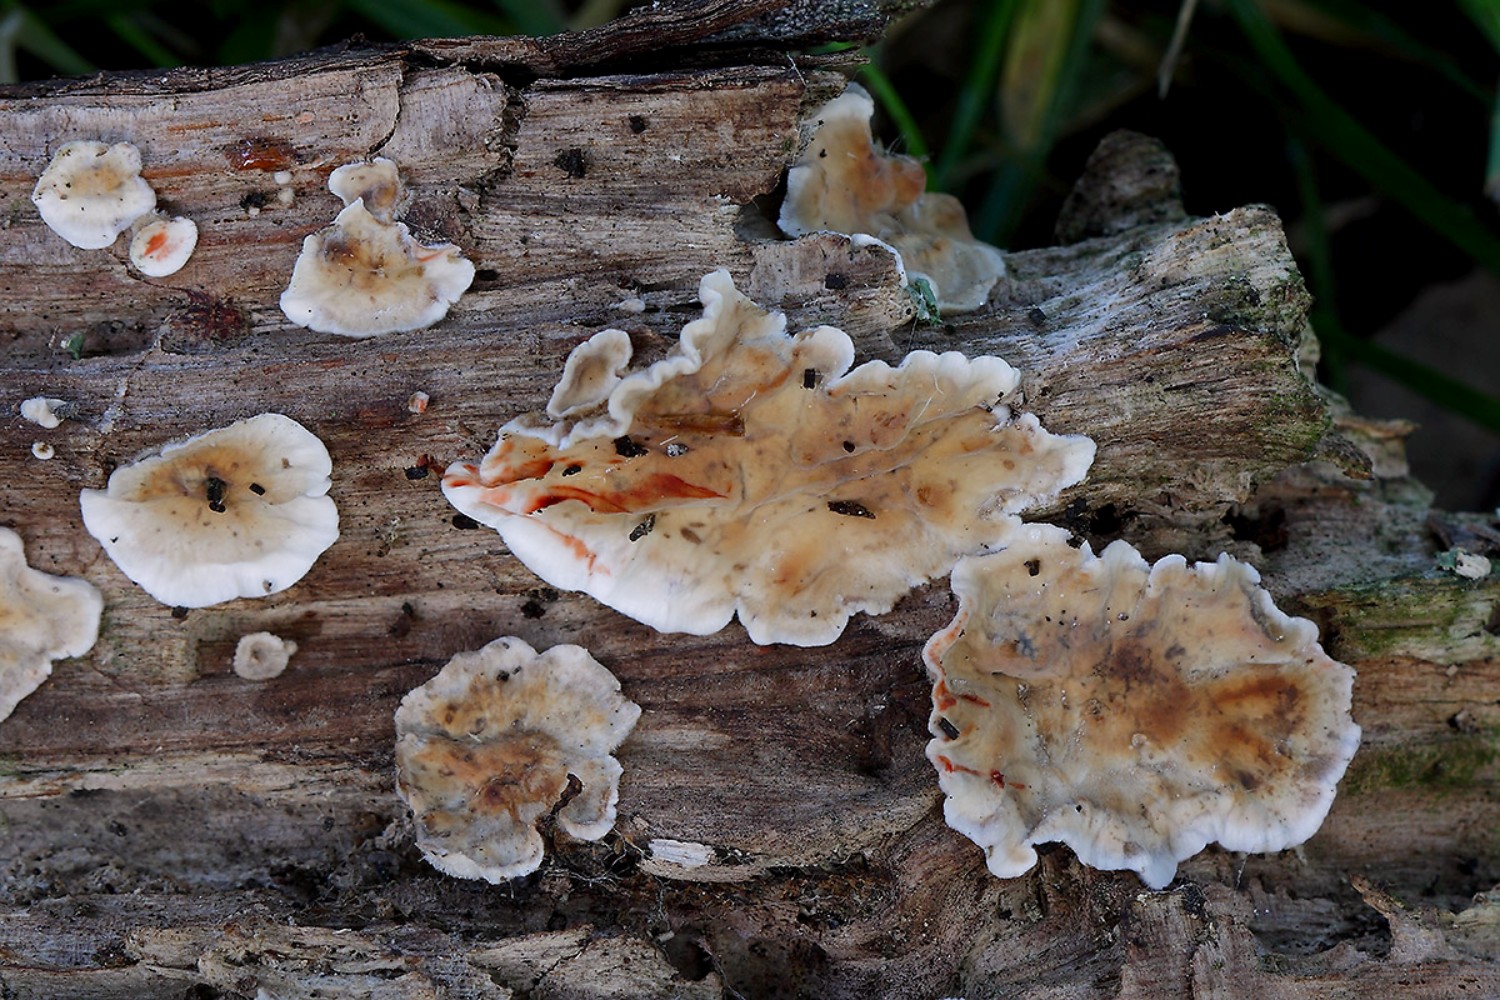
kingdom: Fungi
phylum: Basidiomycota
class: Agaricomycetes
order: Russulales
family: Stereaceae
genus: Stereum
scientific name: Stereum gausapatum
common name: tynd lædersvamp
